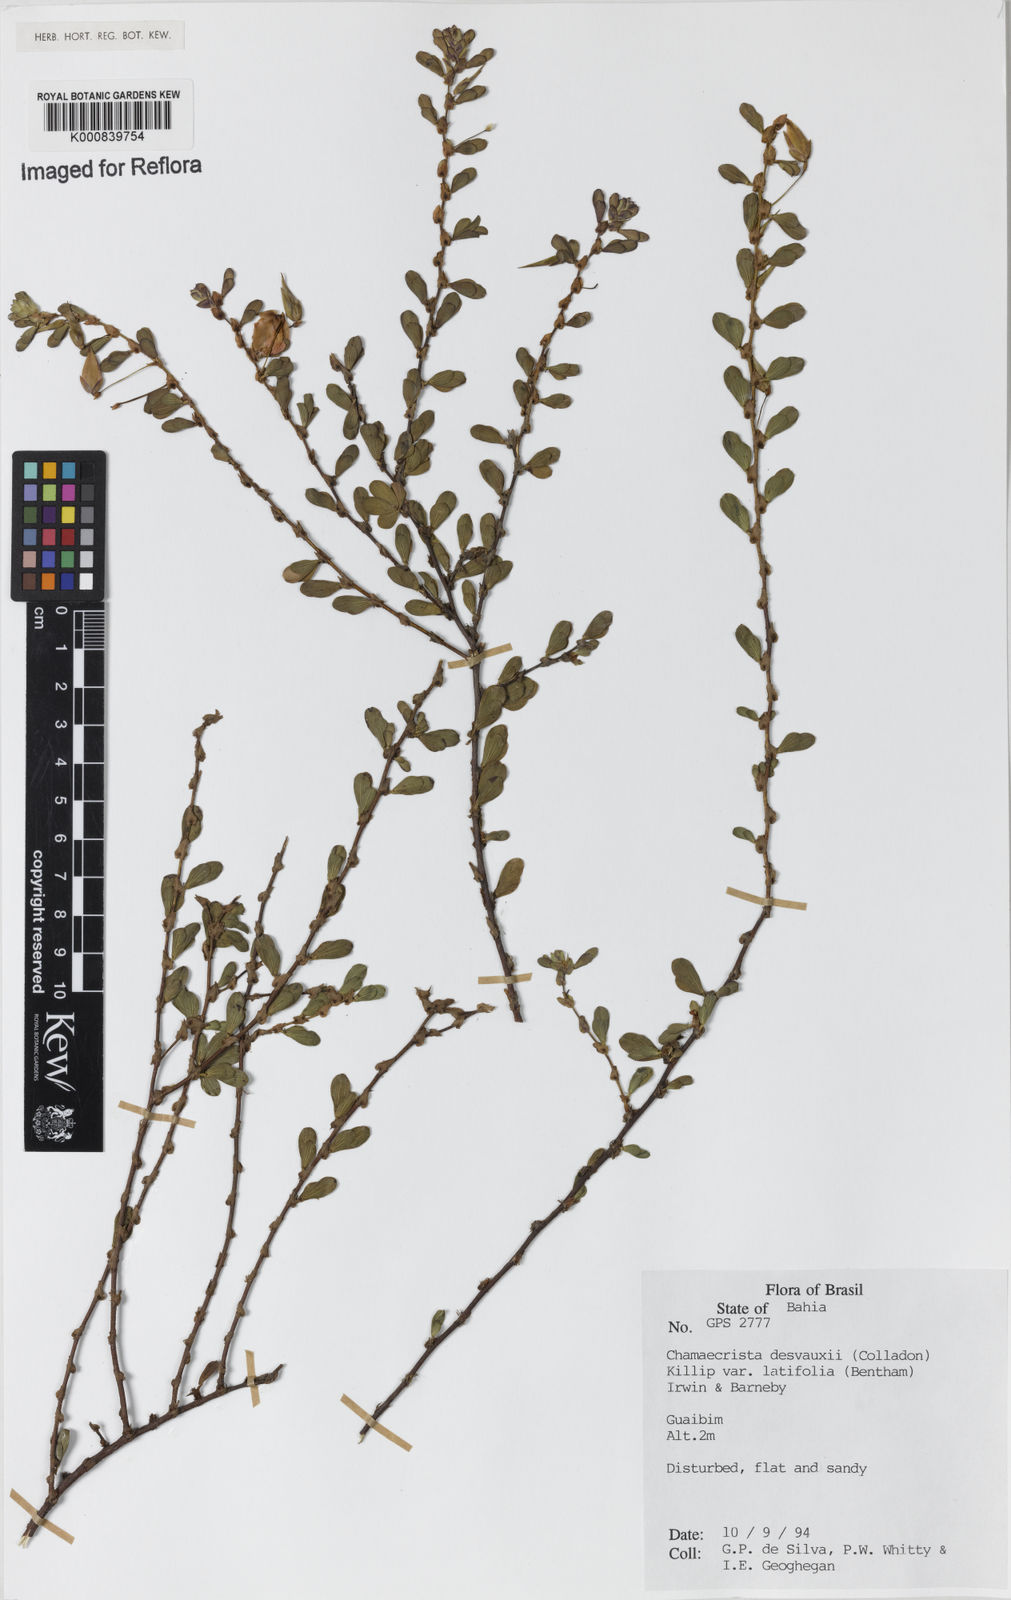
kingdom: Plantae
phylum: Tracheophyta
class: Magnoliopsida
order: Fabales
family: Fabaceae
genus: Chamaecrista
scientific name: Chamaecrista desvauxii
